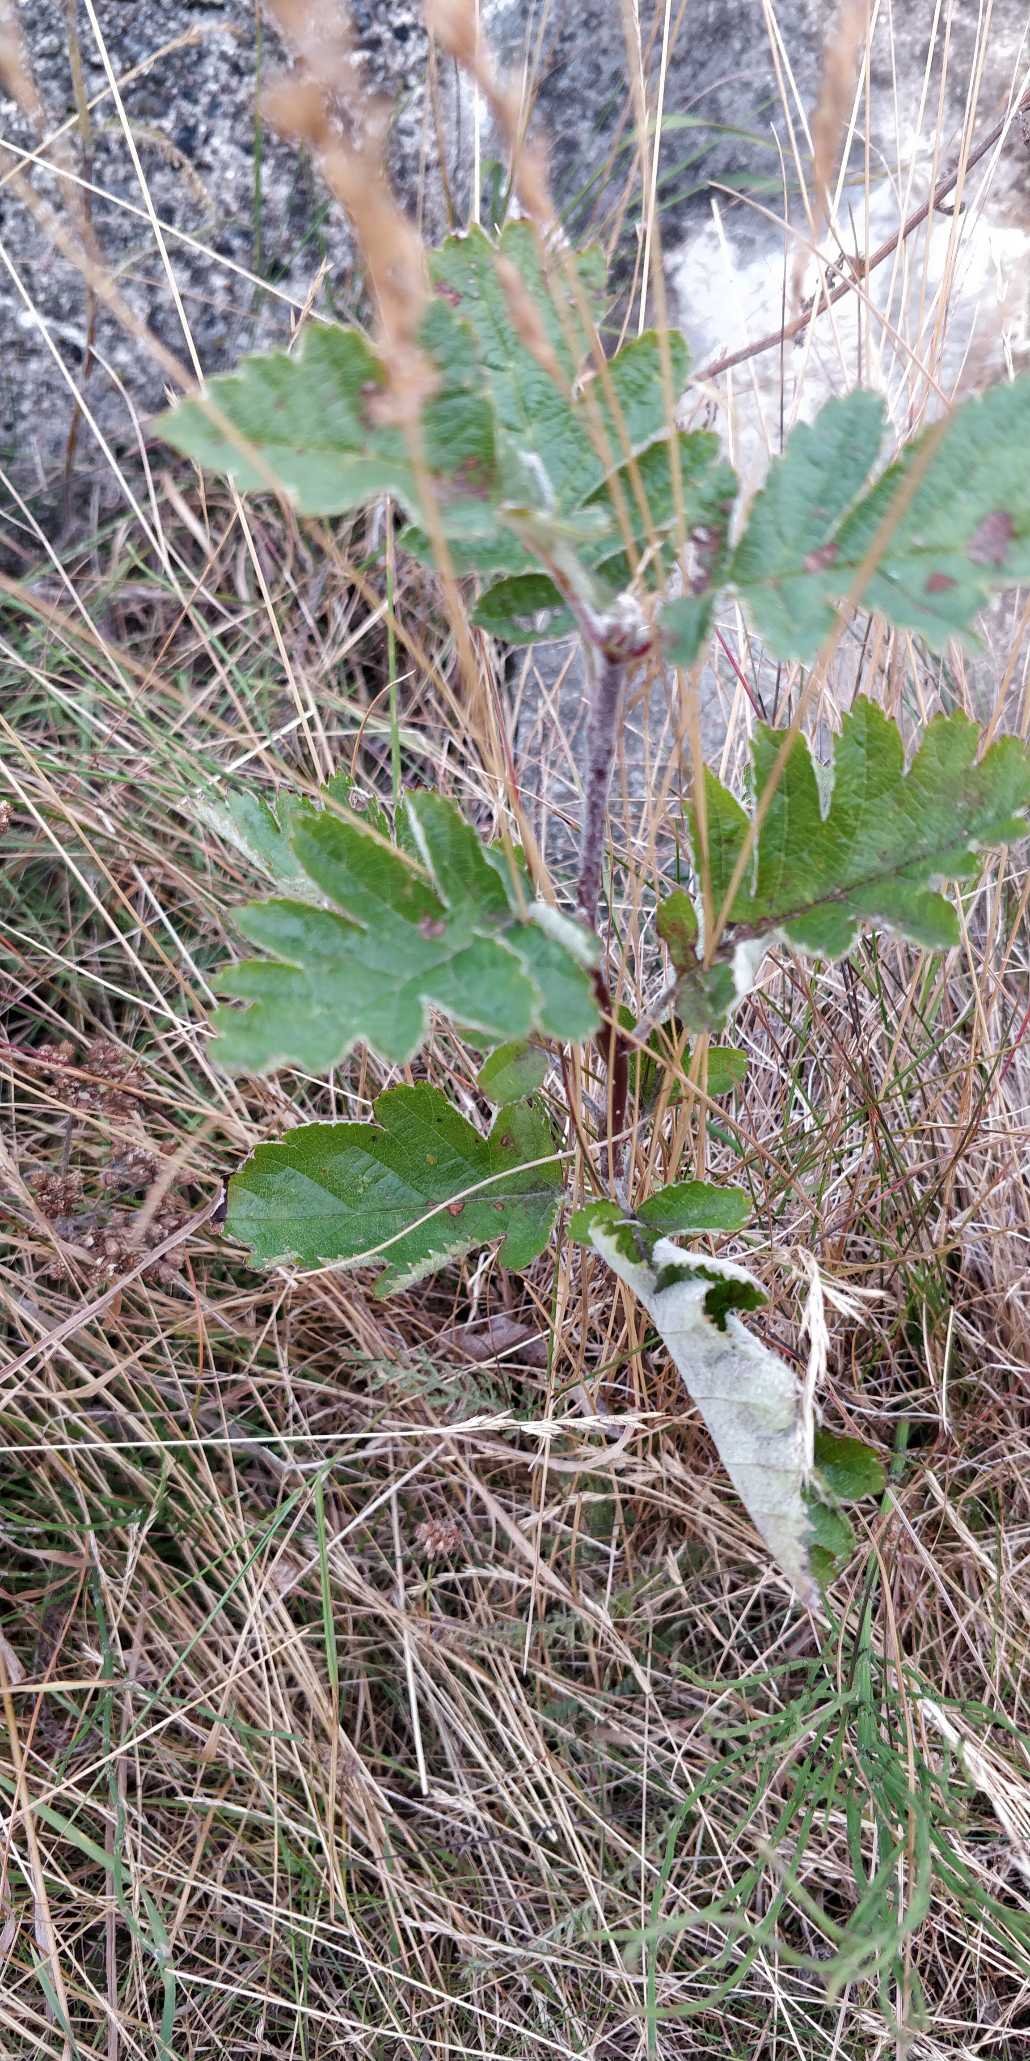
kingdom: Plantae
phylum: Tracheophyta
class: Magnoliopsida
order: Rosales
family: Rosaceae
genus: Scandosorbus
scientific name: Scandosorbus intermedia
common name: Selje-røn
